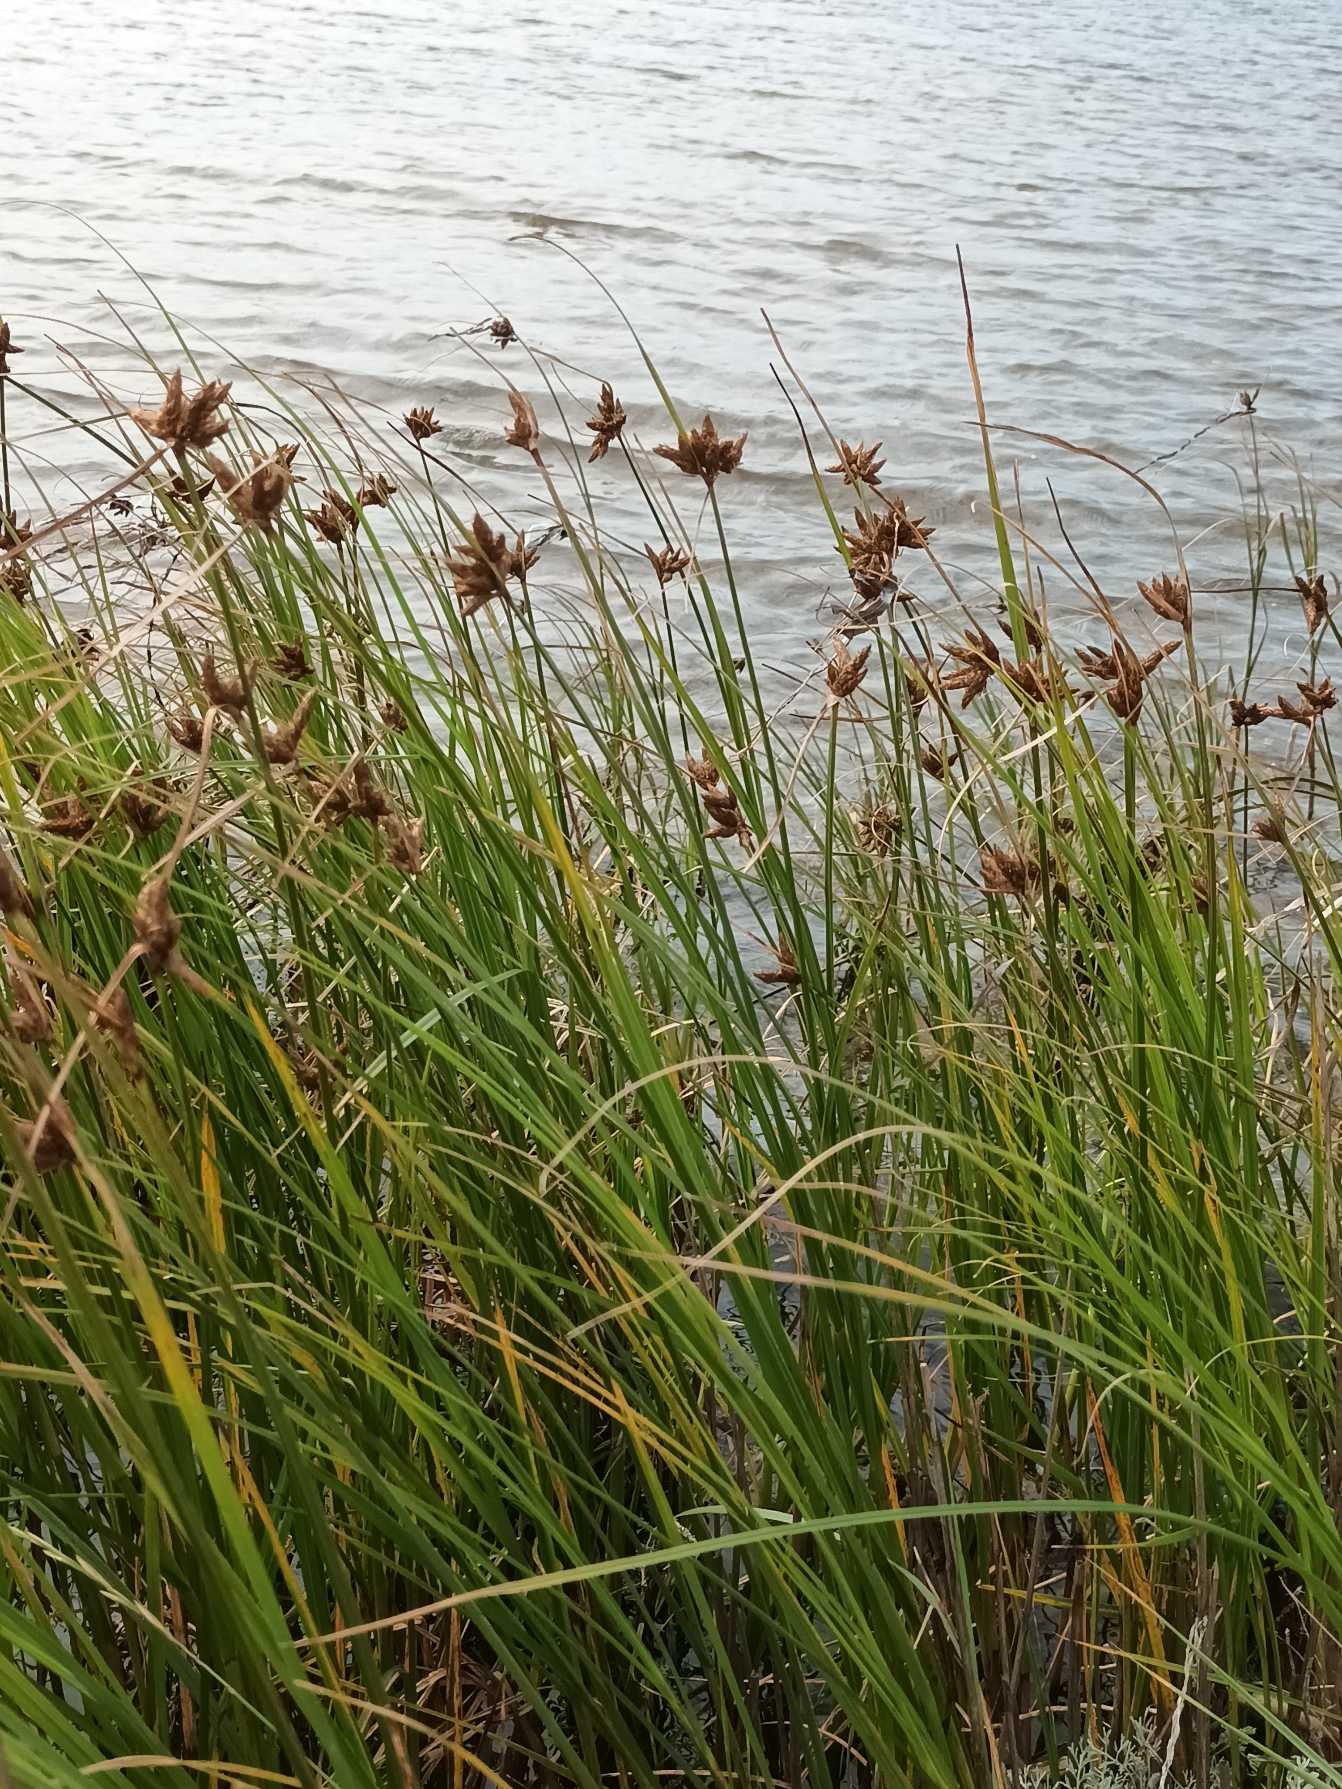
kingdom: Plantae
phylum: Tracheophyta
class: Liliopsida
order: Poales
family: Cyperaceae
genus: Bolboschoenus
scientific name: Bolboschoenus maritimus
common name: Strand-kogleaks
